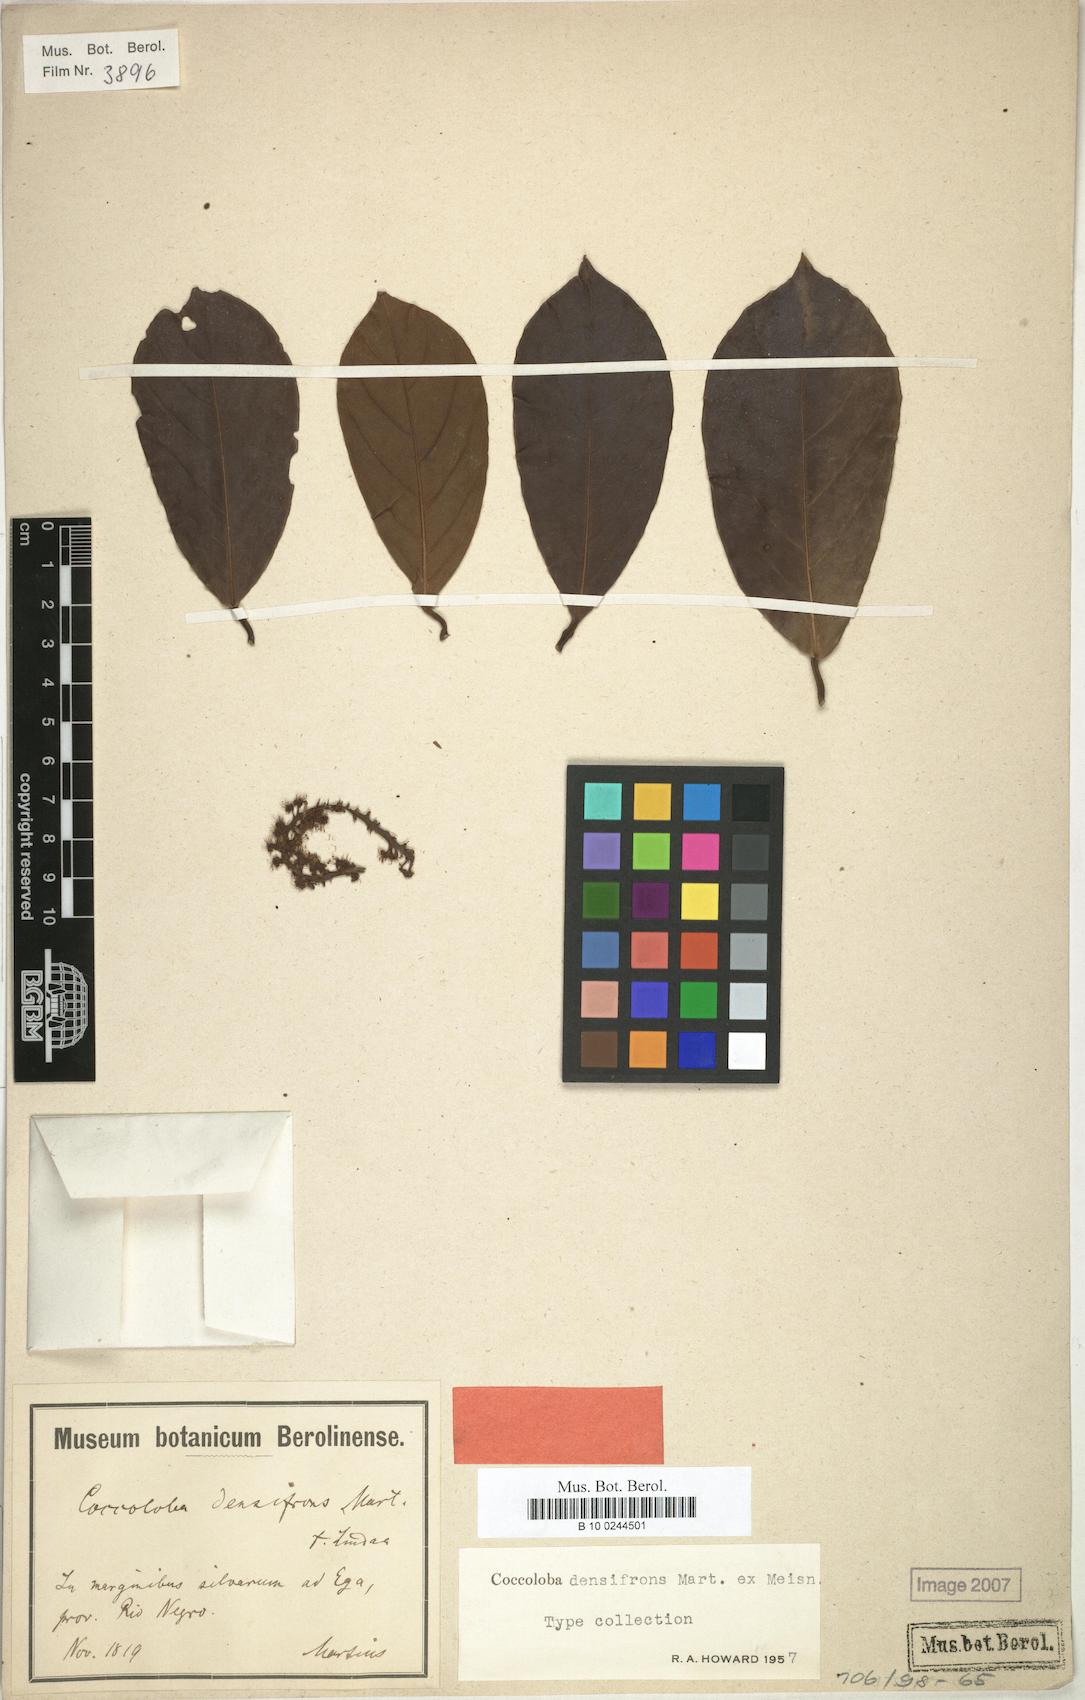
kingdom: Plantae
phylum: Tracheophyta
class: Magnoliopsida
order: Caryophyllales
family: Polygonaceae
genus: Coccoloba
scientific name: Coccoloba densifrons
